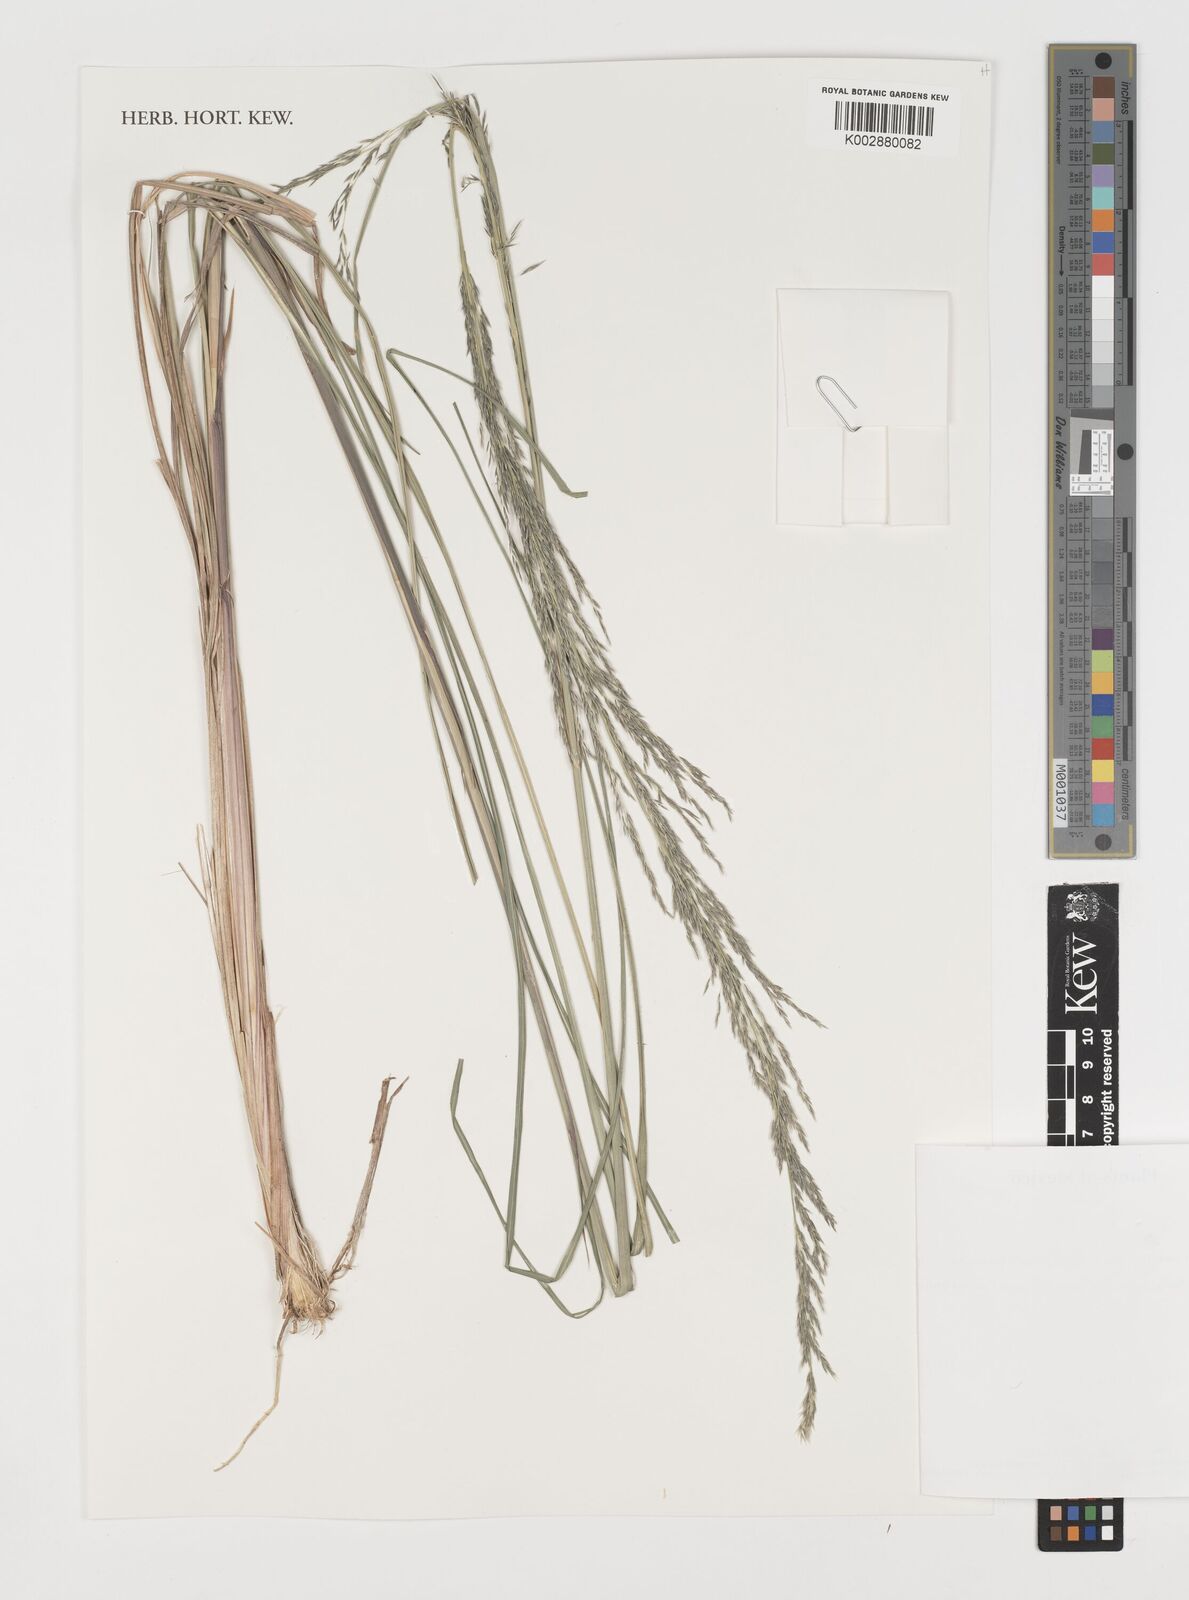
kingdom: Plantae
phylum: Tracheophyta
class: Liliopsida
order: Poales
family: Poaceae
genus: Muhlenbergia
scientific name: Muhlenbergia
